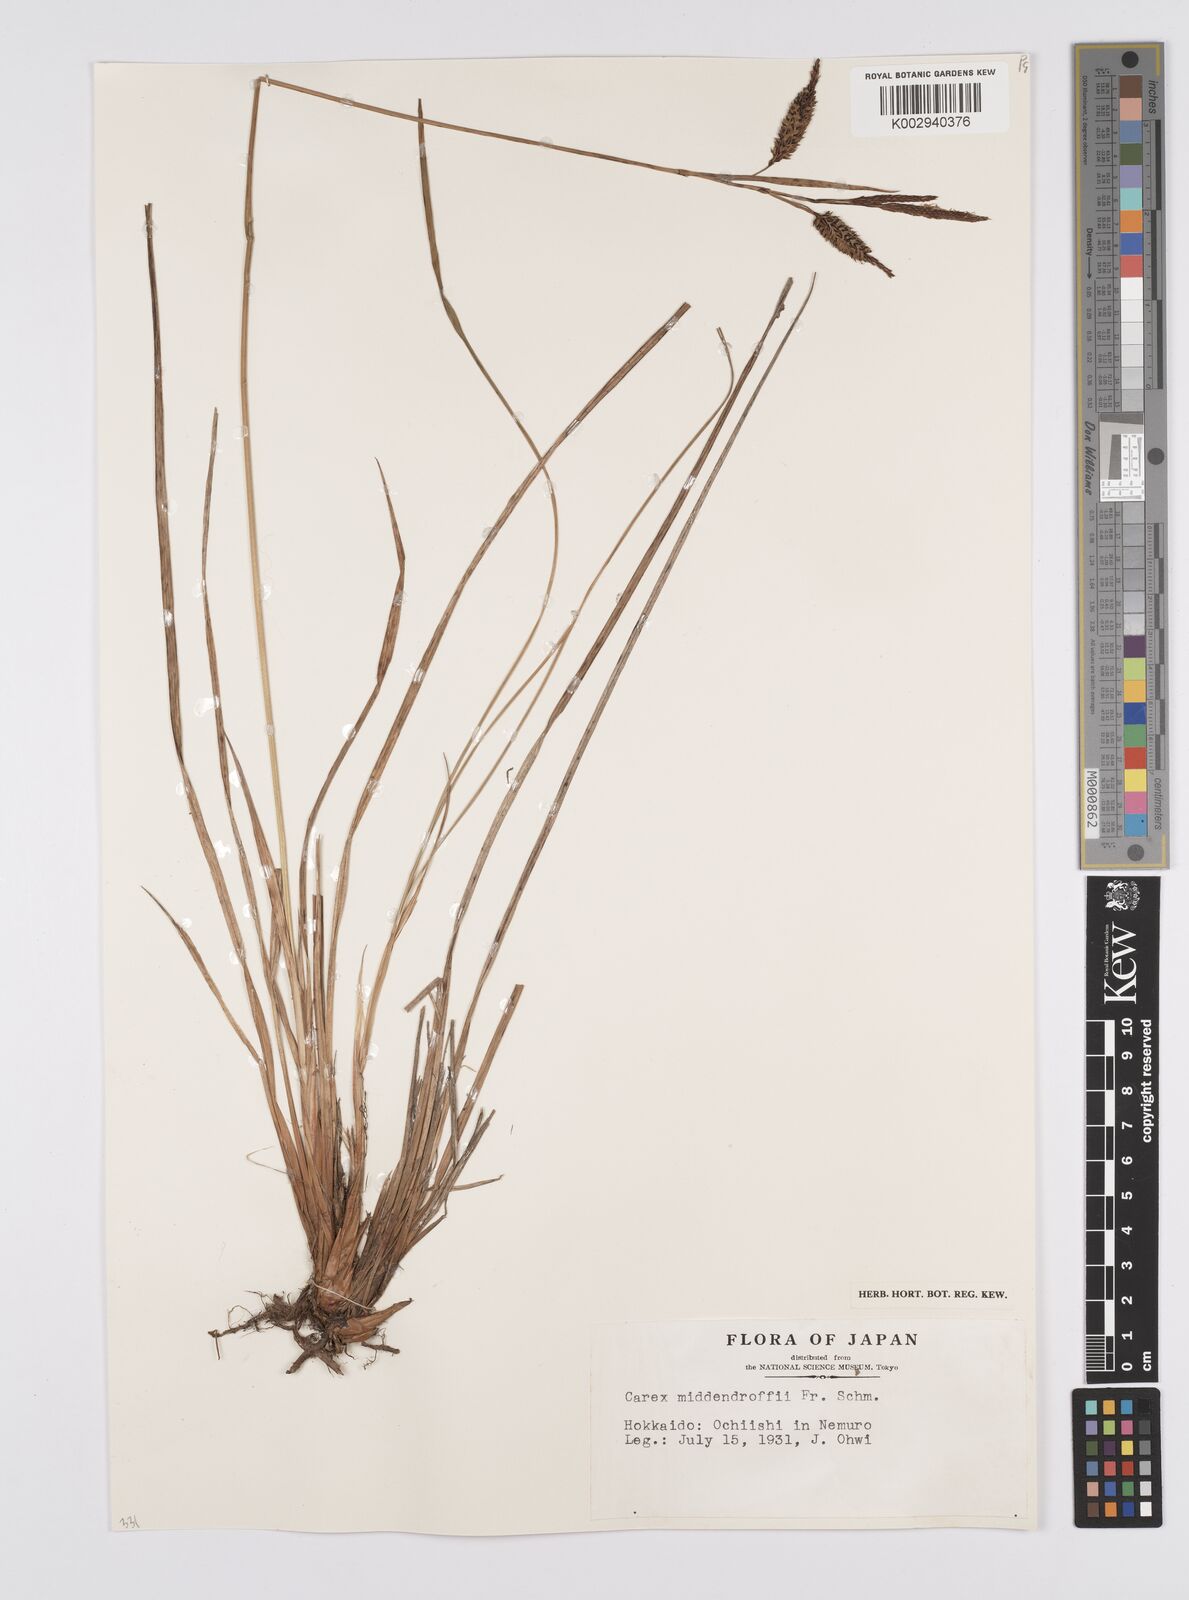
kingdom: Plantae
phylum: Tracheophyta
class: Liliopsida
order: Poales
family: Cyperaceae
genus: Carex
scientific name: Carex middendorffii
